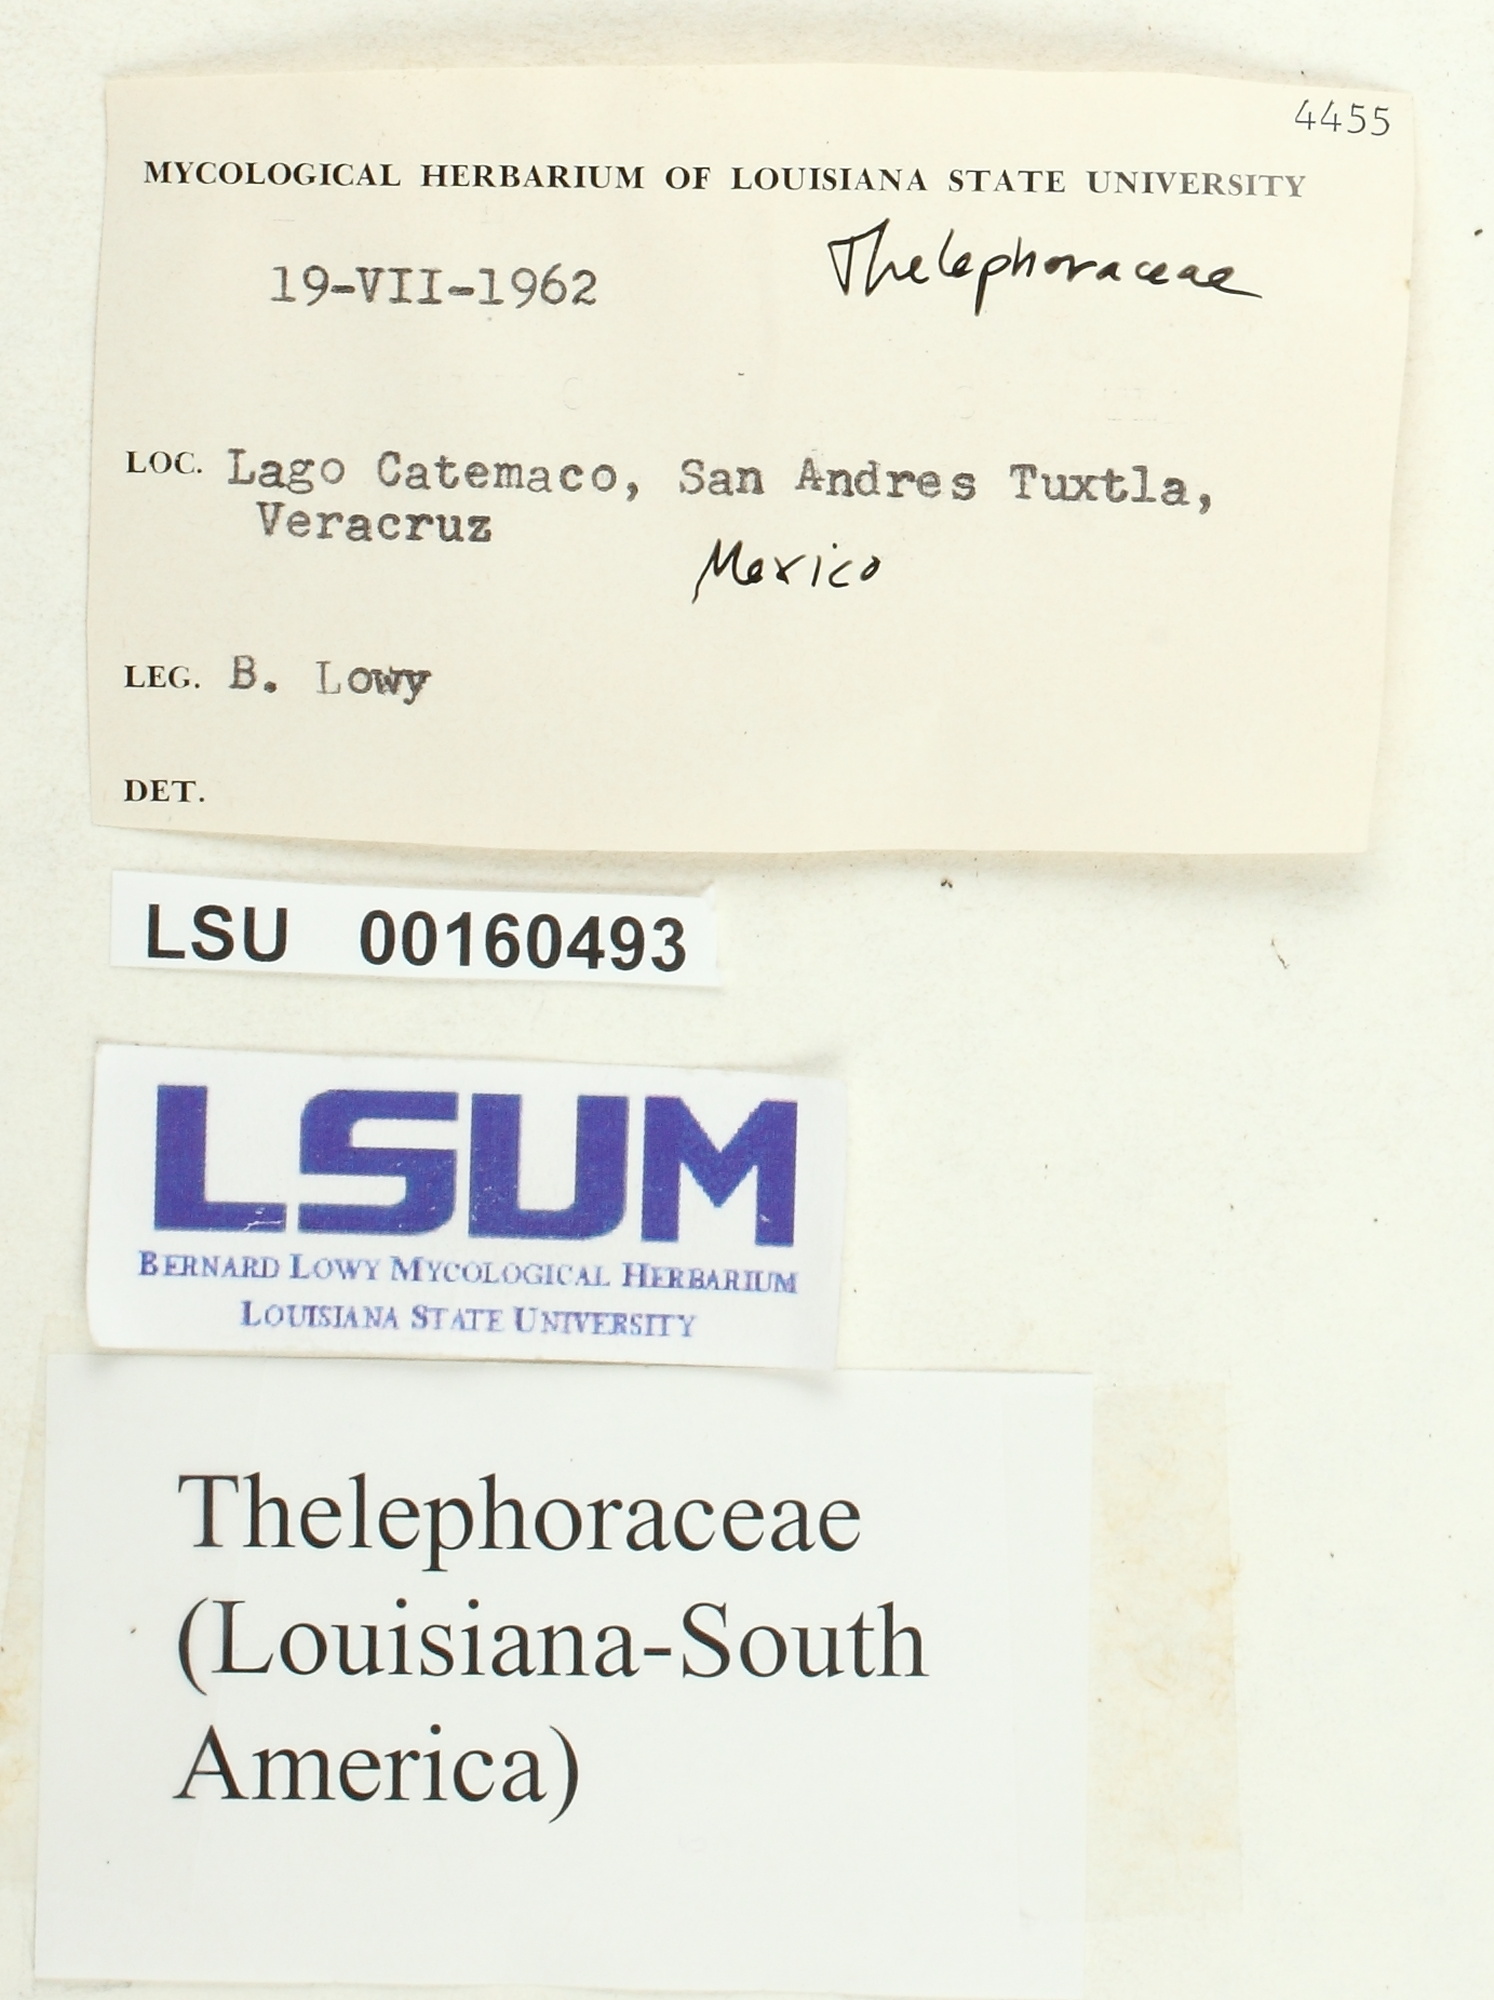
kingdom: Fungi
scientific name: Fungi
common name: Fungi
